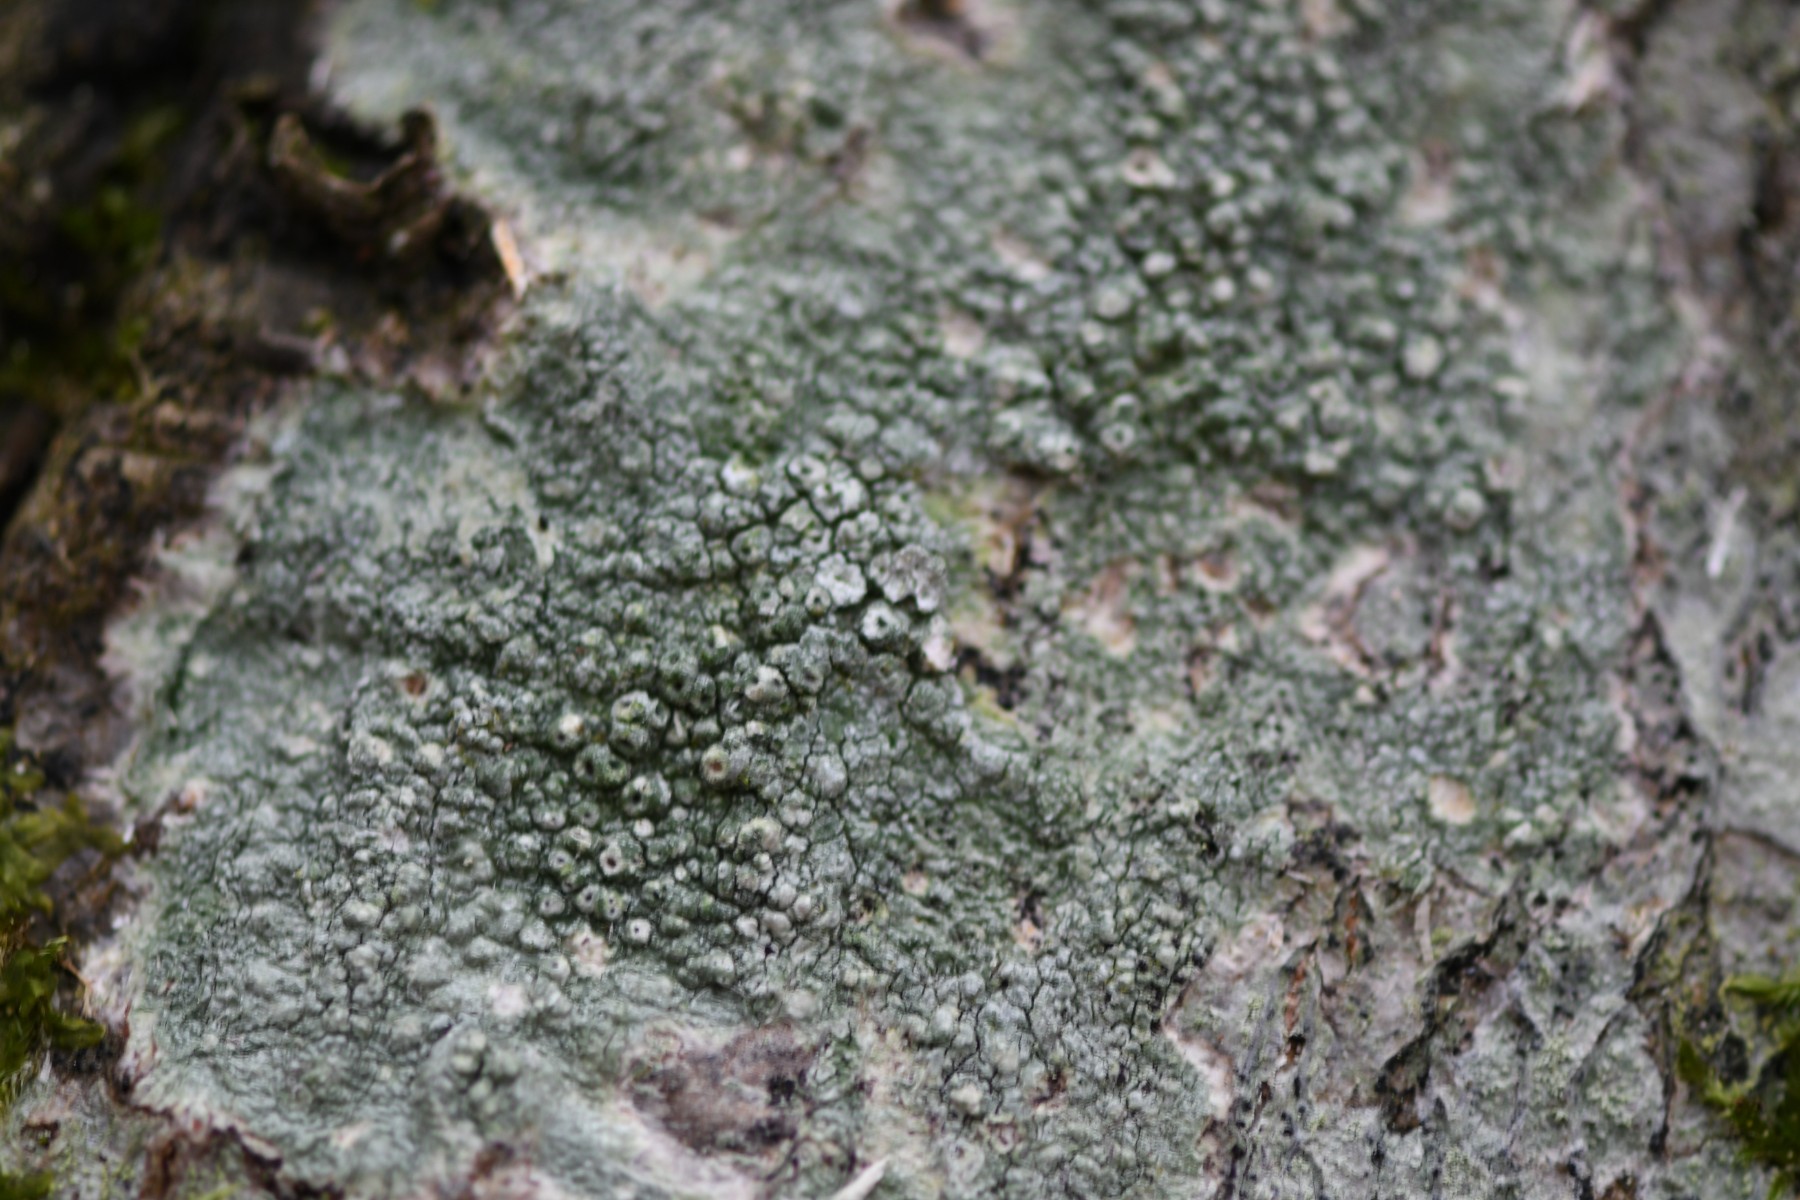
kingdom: Fungi
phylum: Ascomycota
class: Lecanoromycetes
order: Pertusariales
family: Pertusariaceae
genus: Pertusaria
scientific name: Pertusaria pertusa
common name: almindelig prikvortelav
